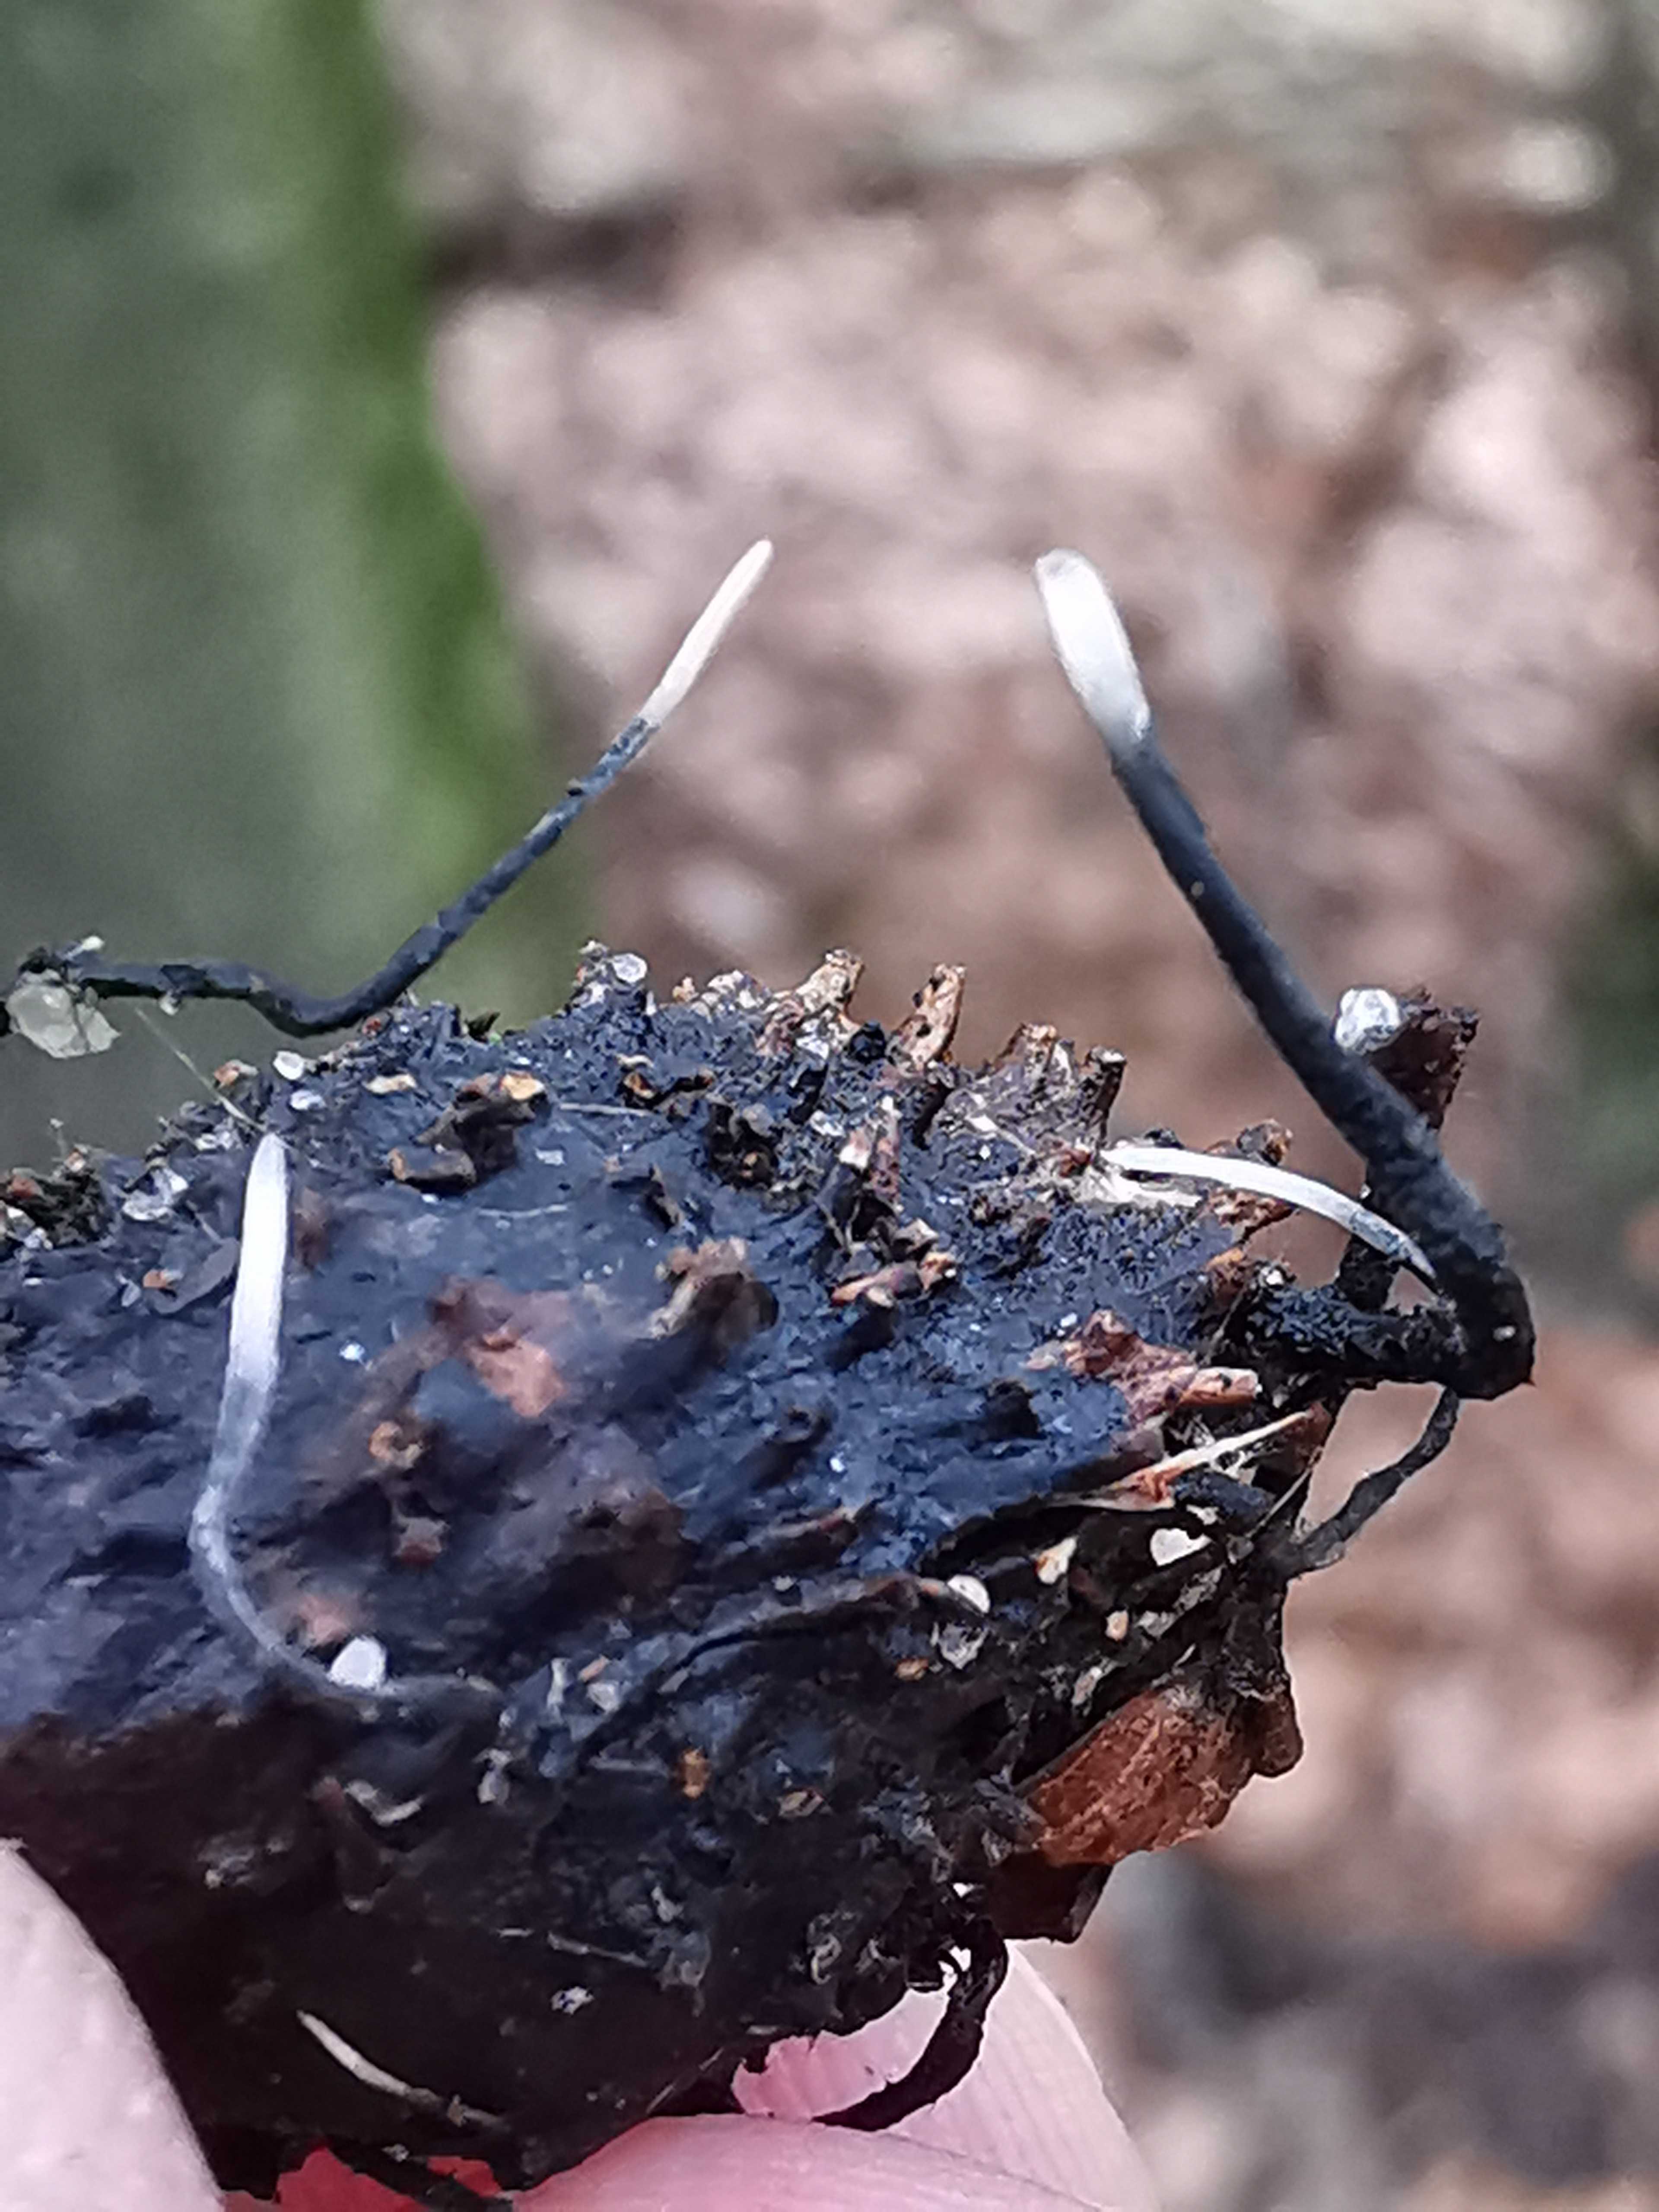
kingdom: Fungi
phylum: Ascomycota
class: Sordariomycetes
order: Xylariales
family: Xylariaceae
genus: Xylaria
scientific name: Xylaria carpophila
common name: bogskål-stødsvamp
